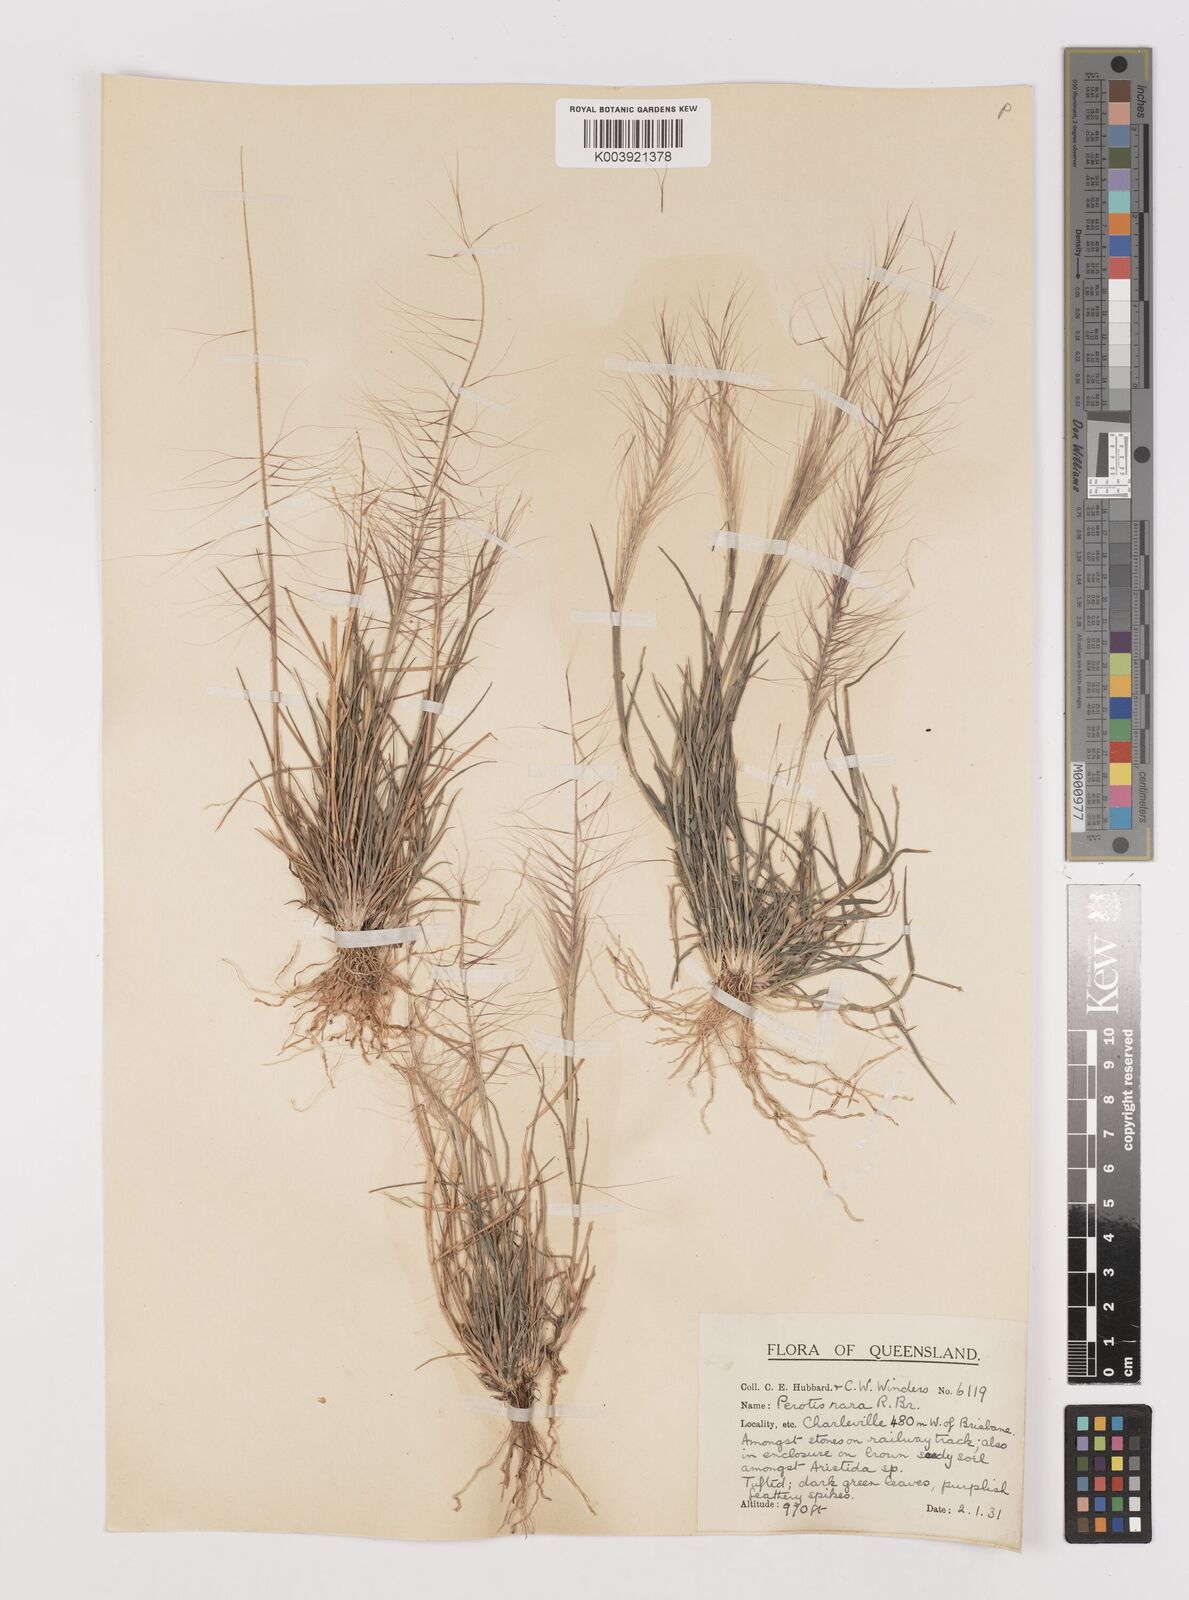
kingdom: Plantae
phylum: Tracheophyta
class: Liliopsida
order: Poales
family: Poaceae
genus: Perotis
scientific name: Perotis rara
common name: Comet grass
